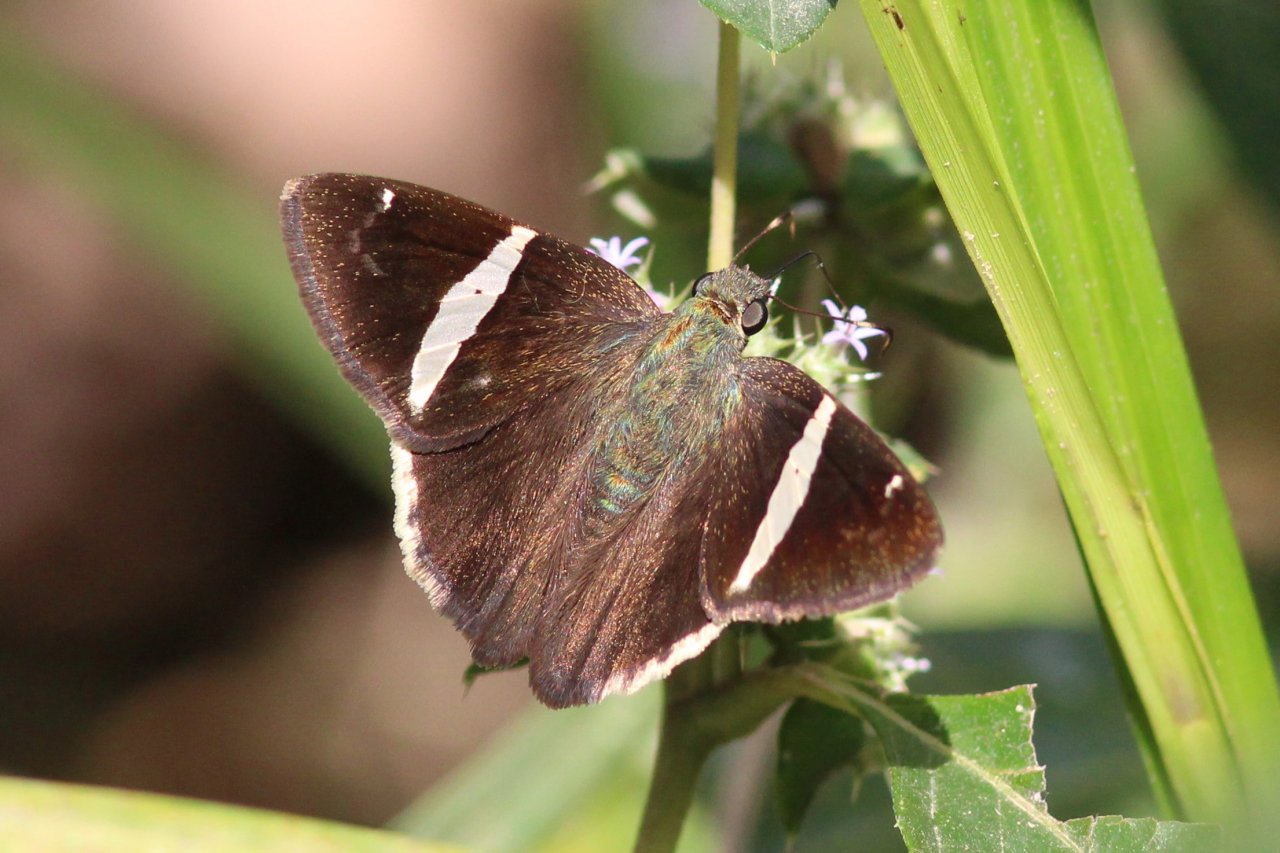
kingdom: Animalia
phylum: Arthropoda
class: Insecta
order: Lepidoptera
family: Hesperiidae
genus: Autochton
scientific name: Autochton longipennis
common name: Spike Banded-Skipper
